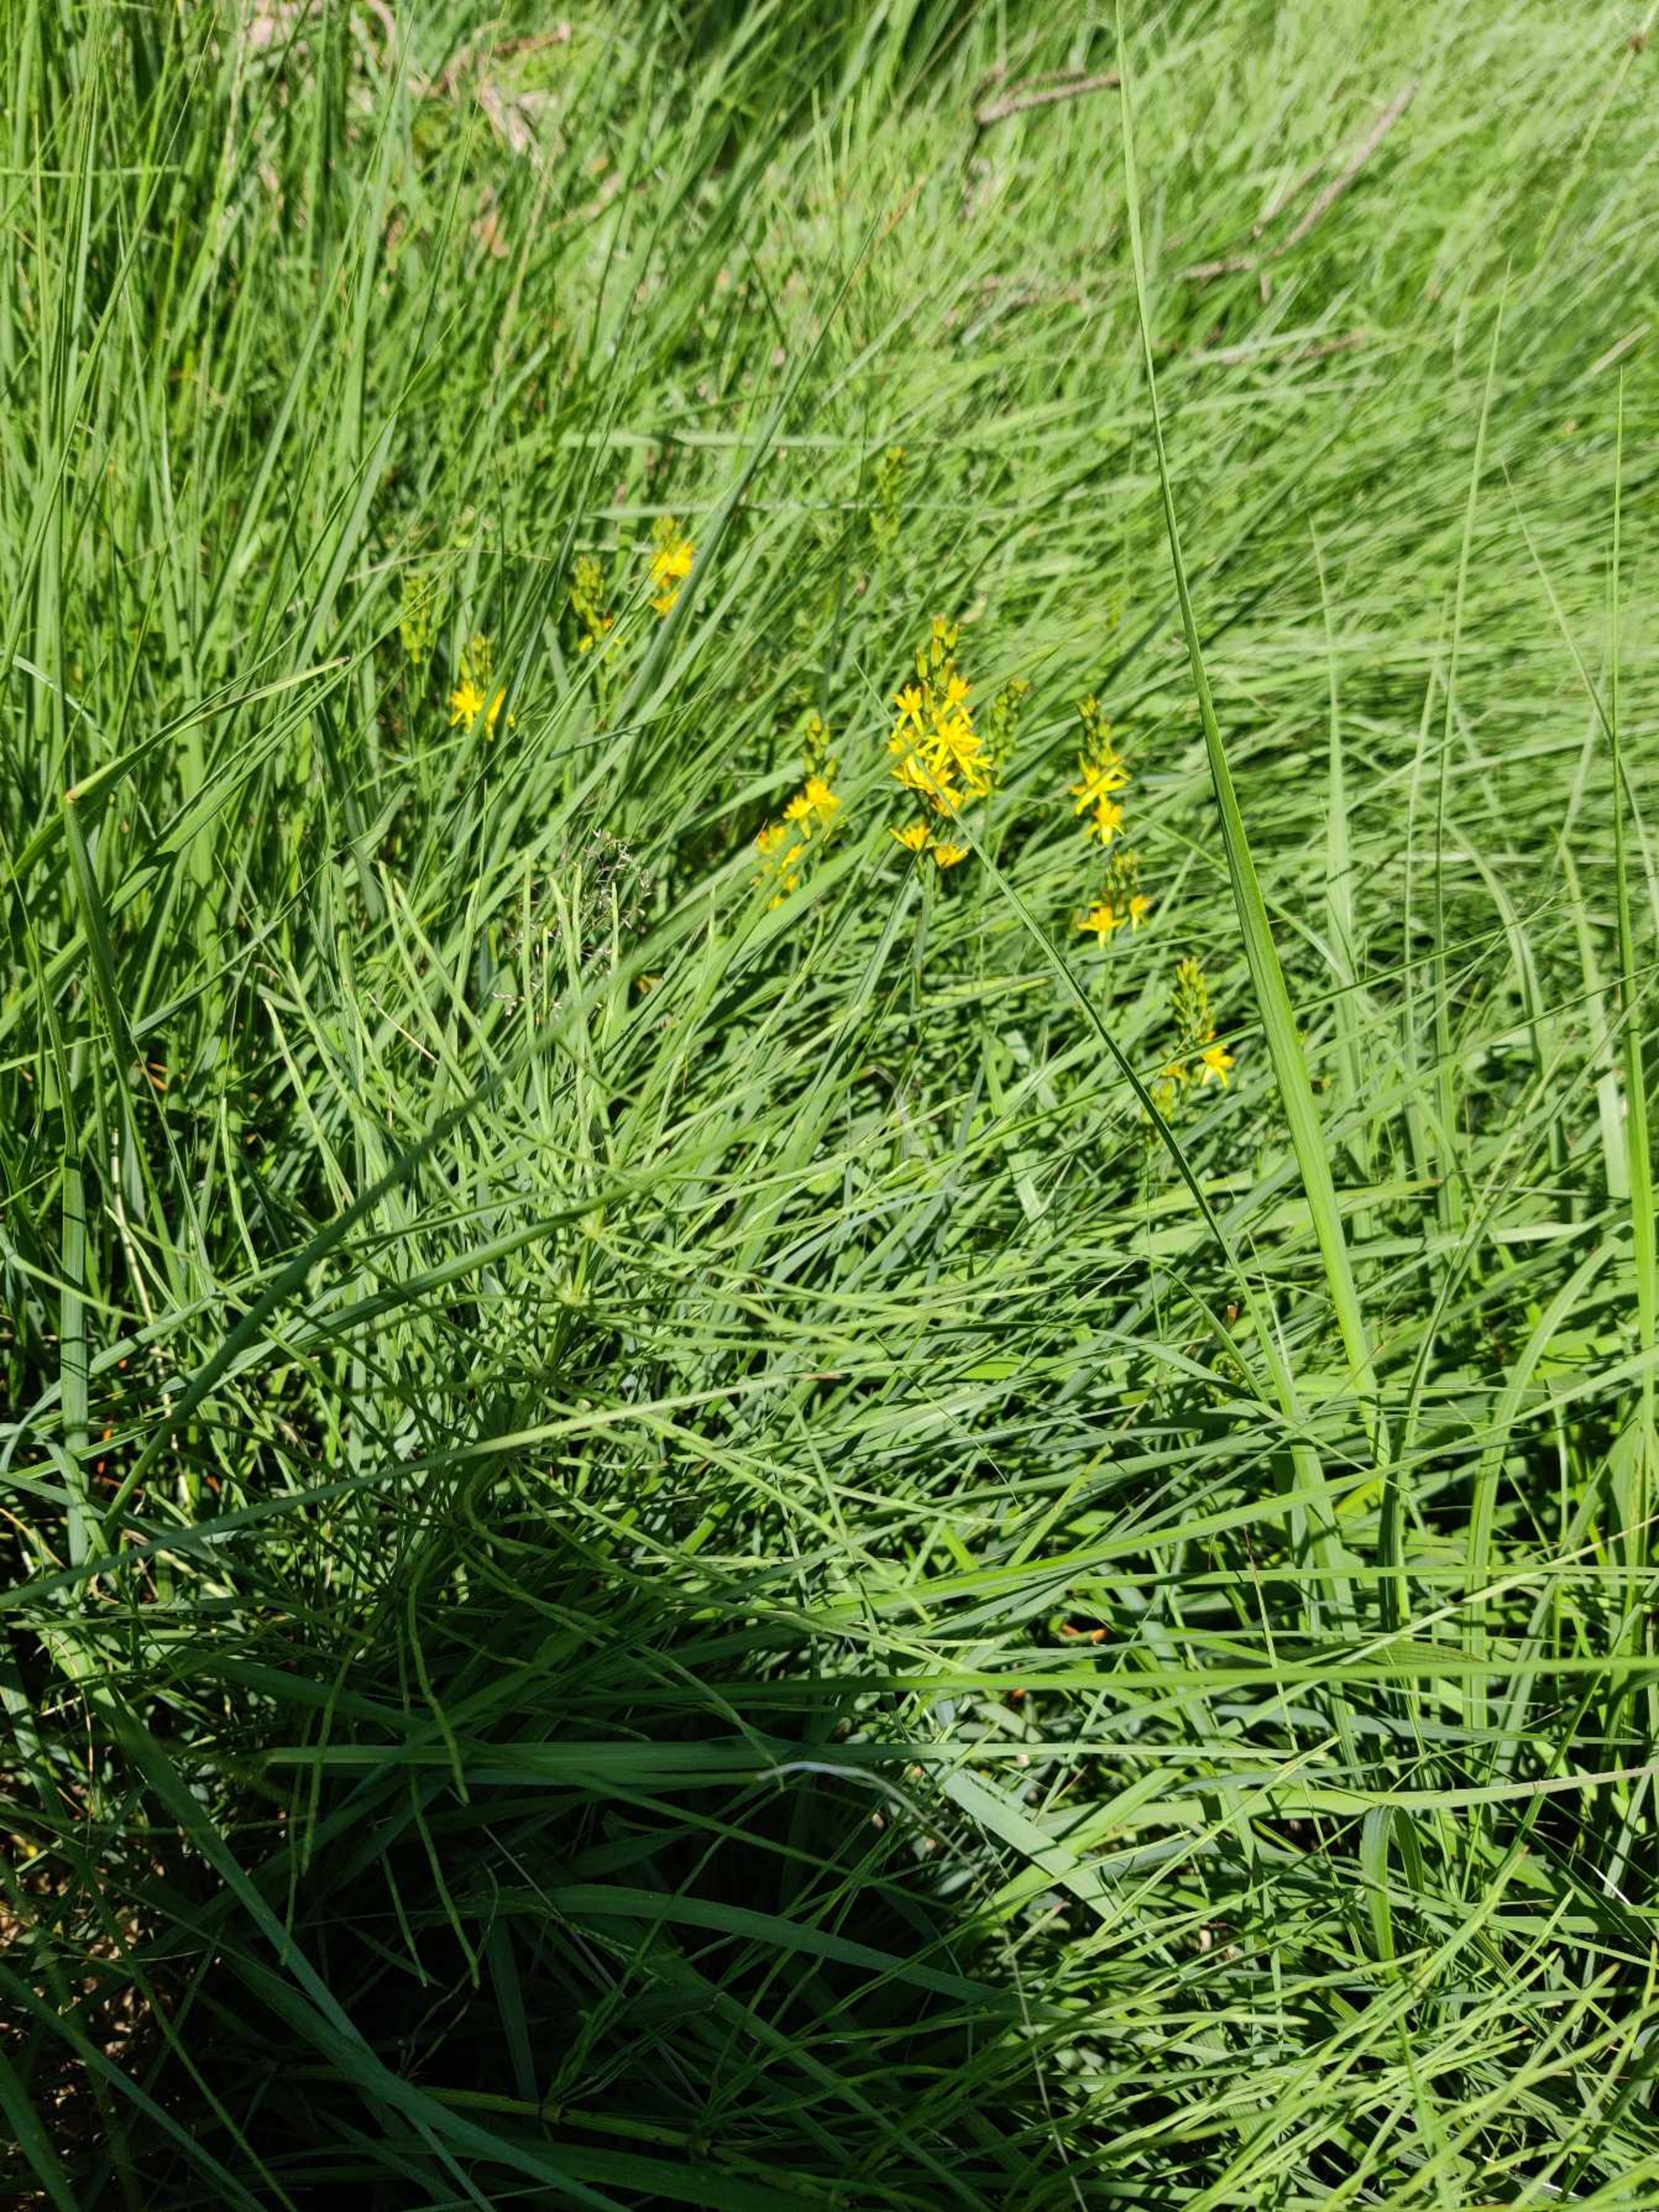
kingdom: Plantae
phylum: Tracheophyta
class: Liliopsida
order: Dioscoreales
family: Nartheciaceae
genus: Narthecium
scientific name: Narthecium ossifragum
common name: Benbræk
